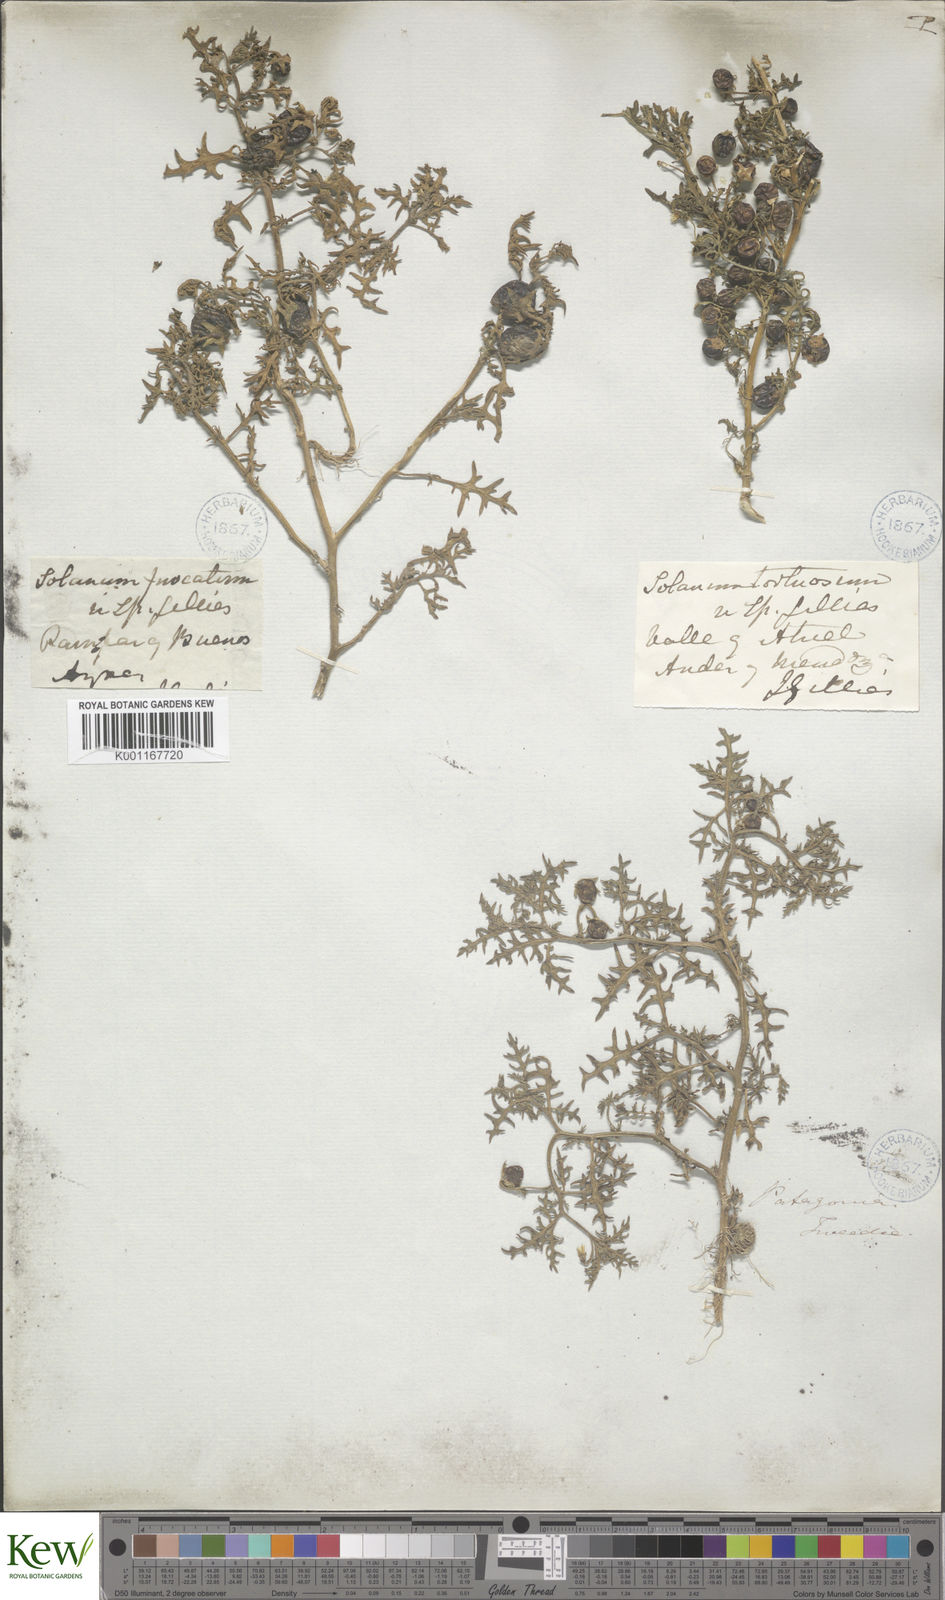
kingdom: Plantae
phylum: Tracheophyta
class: Magnoliopsida
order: Solanales
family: Solanaceae
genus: Solanum
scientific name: Solanum triflorum
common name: Small nightshade
